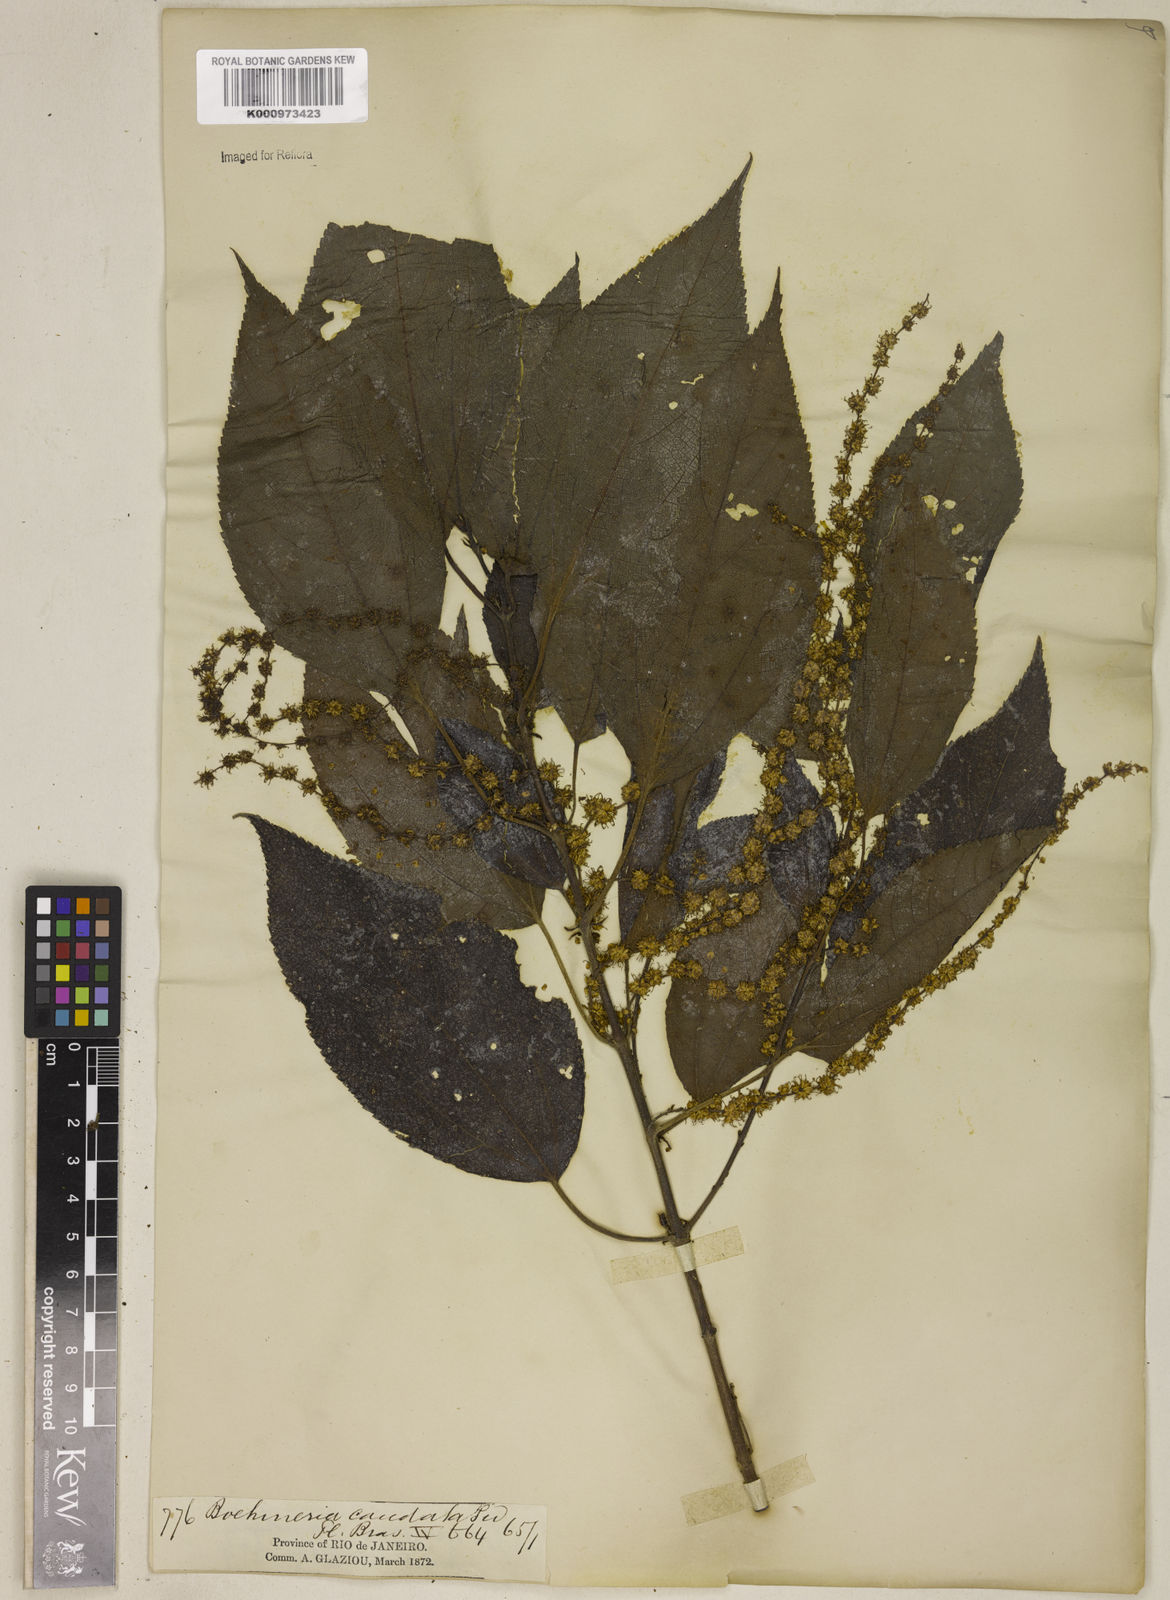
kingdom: Plantae
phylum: Tracheophyta
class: Magnoliopsida
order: Rosales
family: Urticaceae
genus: Boehmeria
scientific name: Boehmeria caudata
